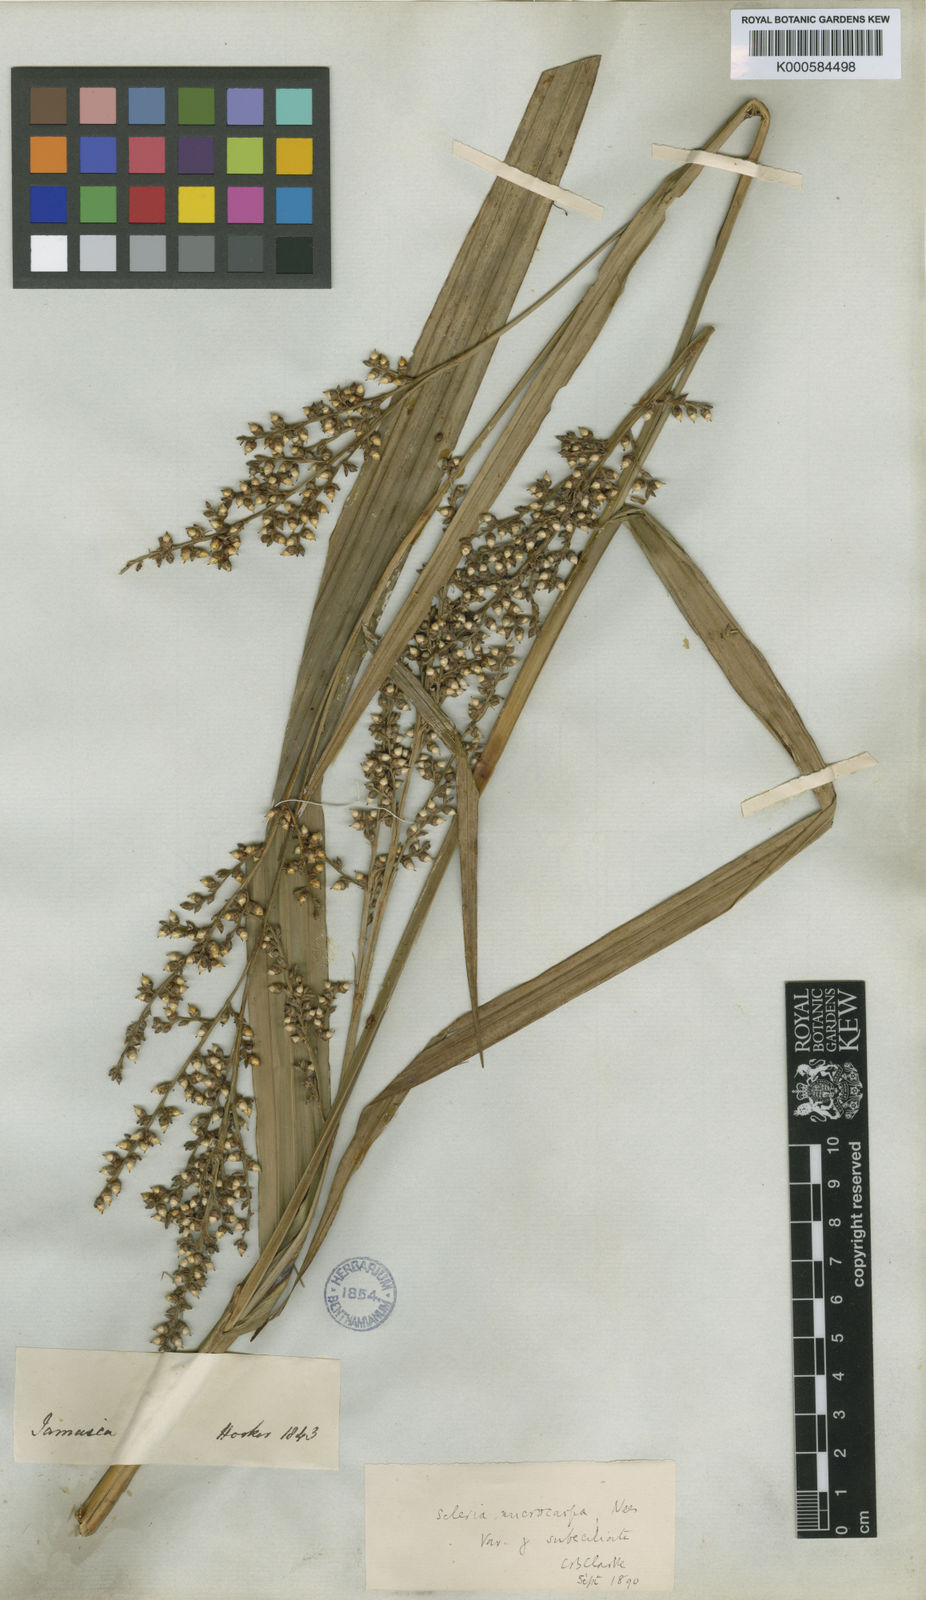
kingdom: Plantae
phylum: Tracheophyta
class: Liliopsida
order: Poales
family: Cyperaceae
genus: Scleria
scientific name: Scleria microcarpa
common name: Tropical nutrush
